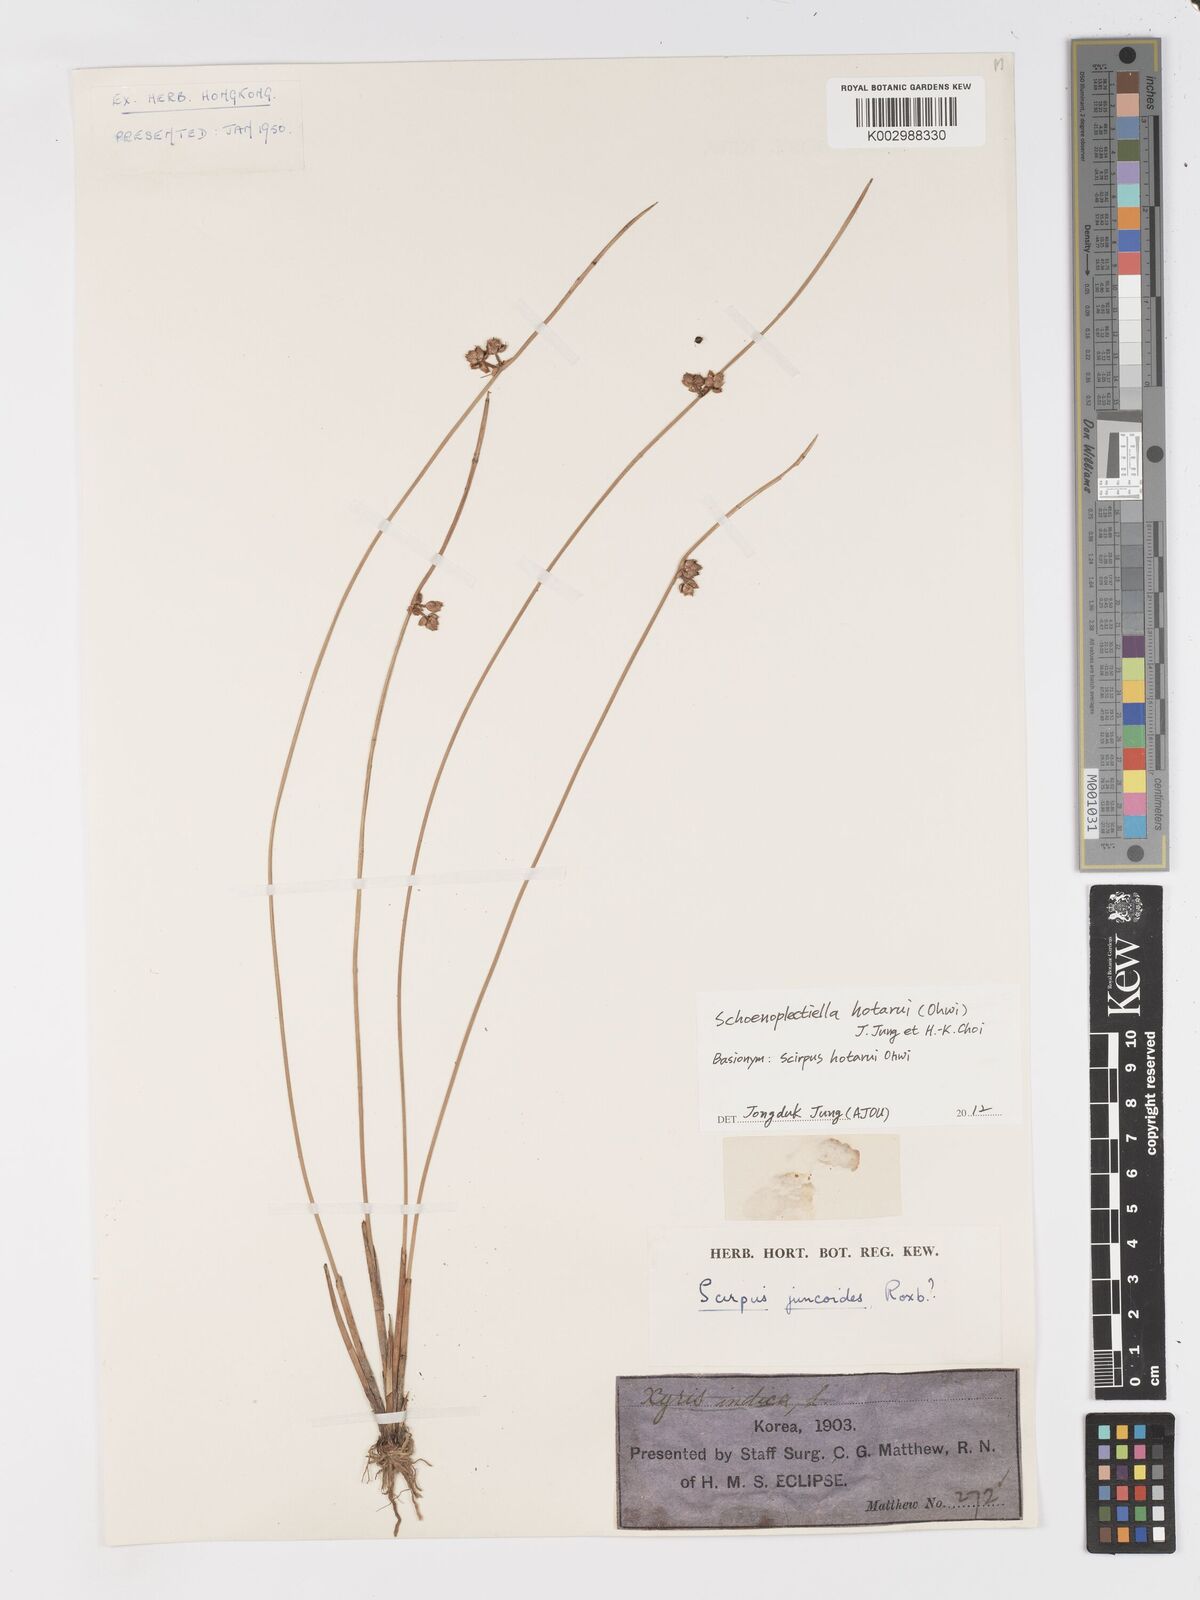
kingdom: Plantae
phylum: Tracheophyta
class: Liliopsida
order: Poales
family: Cyperaceae
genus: Schoenoplectiella
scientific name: Schoenoplectiella hotarui
